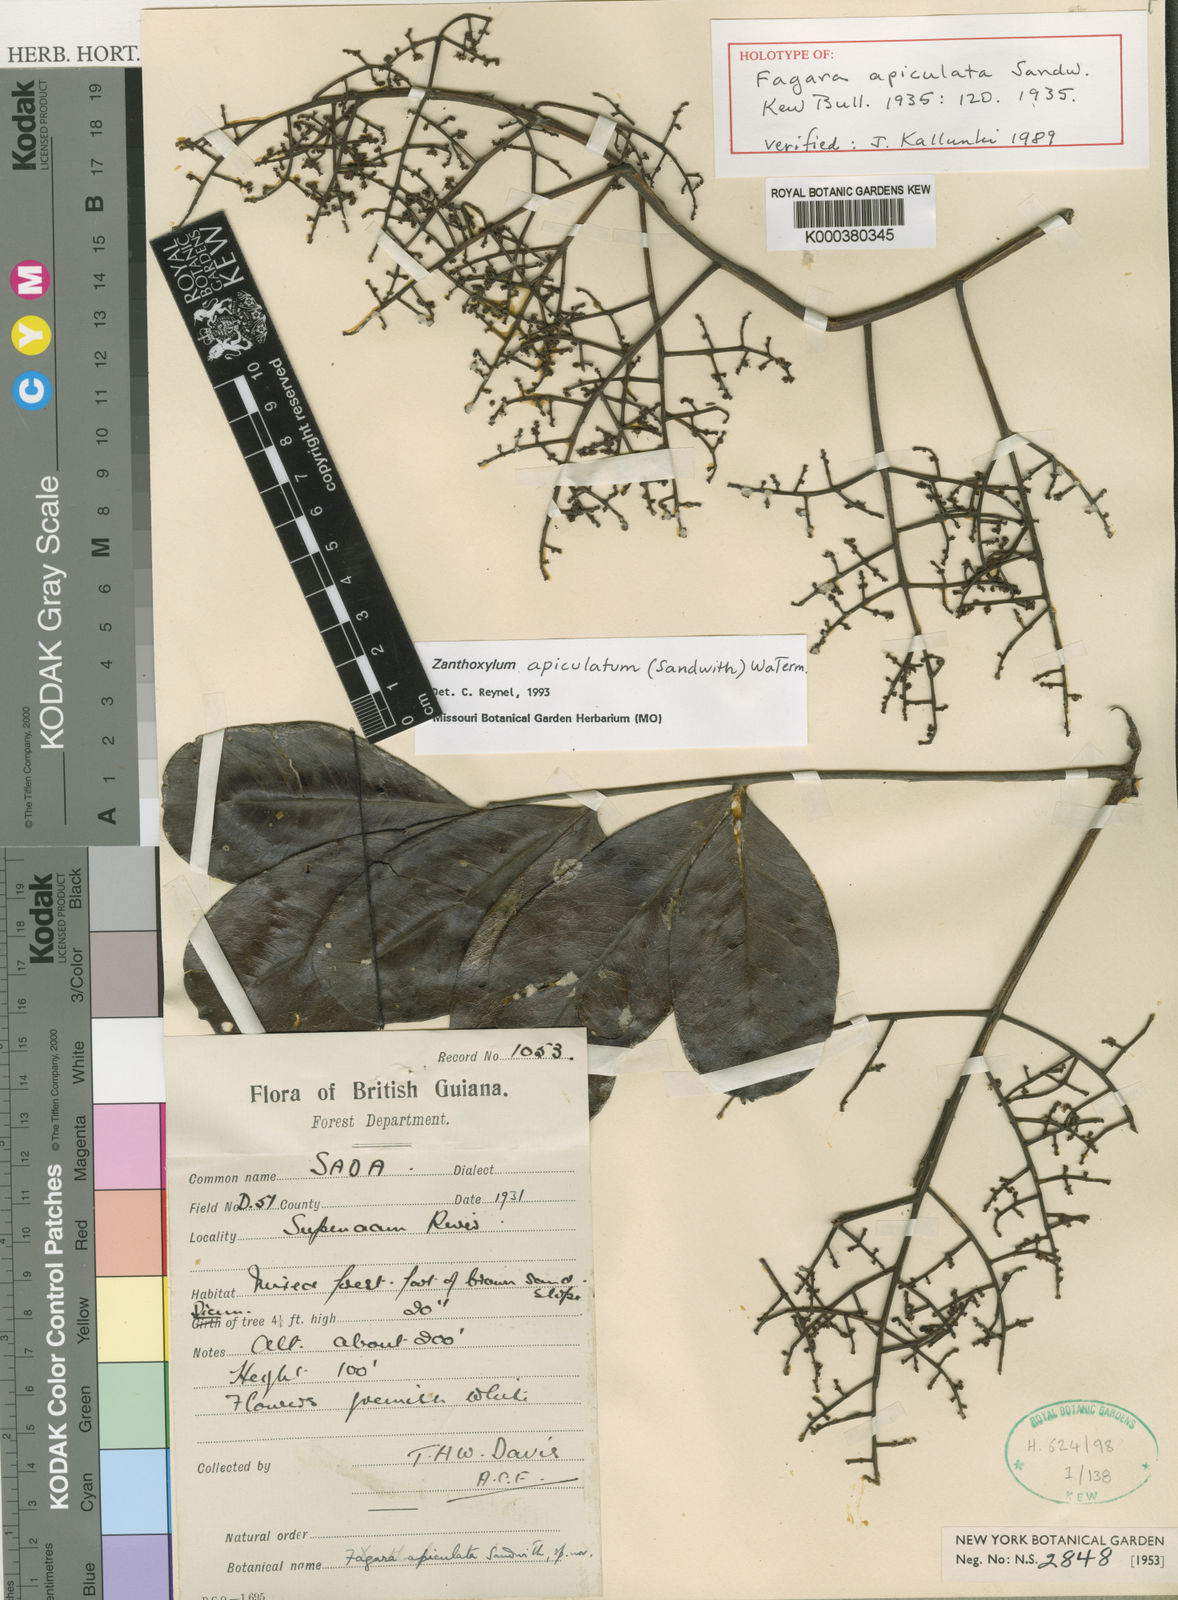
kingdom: Plantae
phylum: Tracheophyta
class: Magnoliopsida
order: Sapindales
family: Rutaceae
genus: Zanthoxylum
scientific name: Zanthoxylum apiculatum
